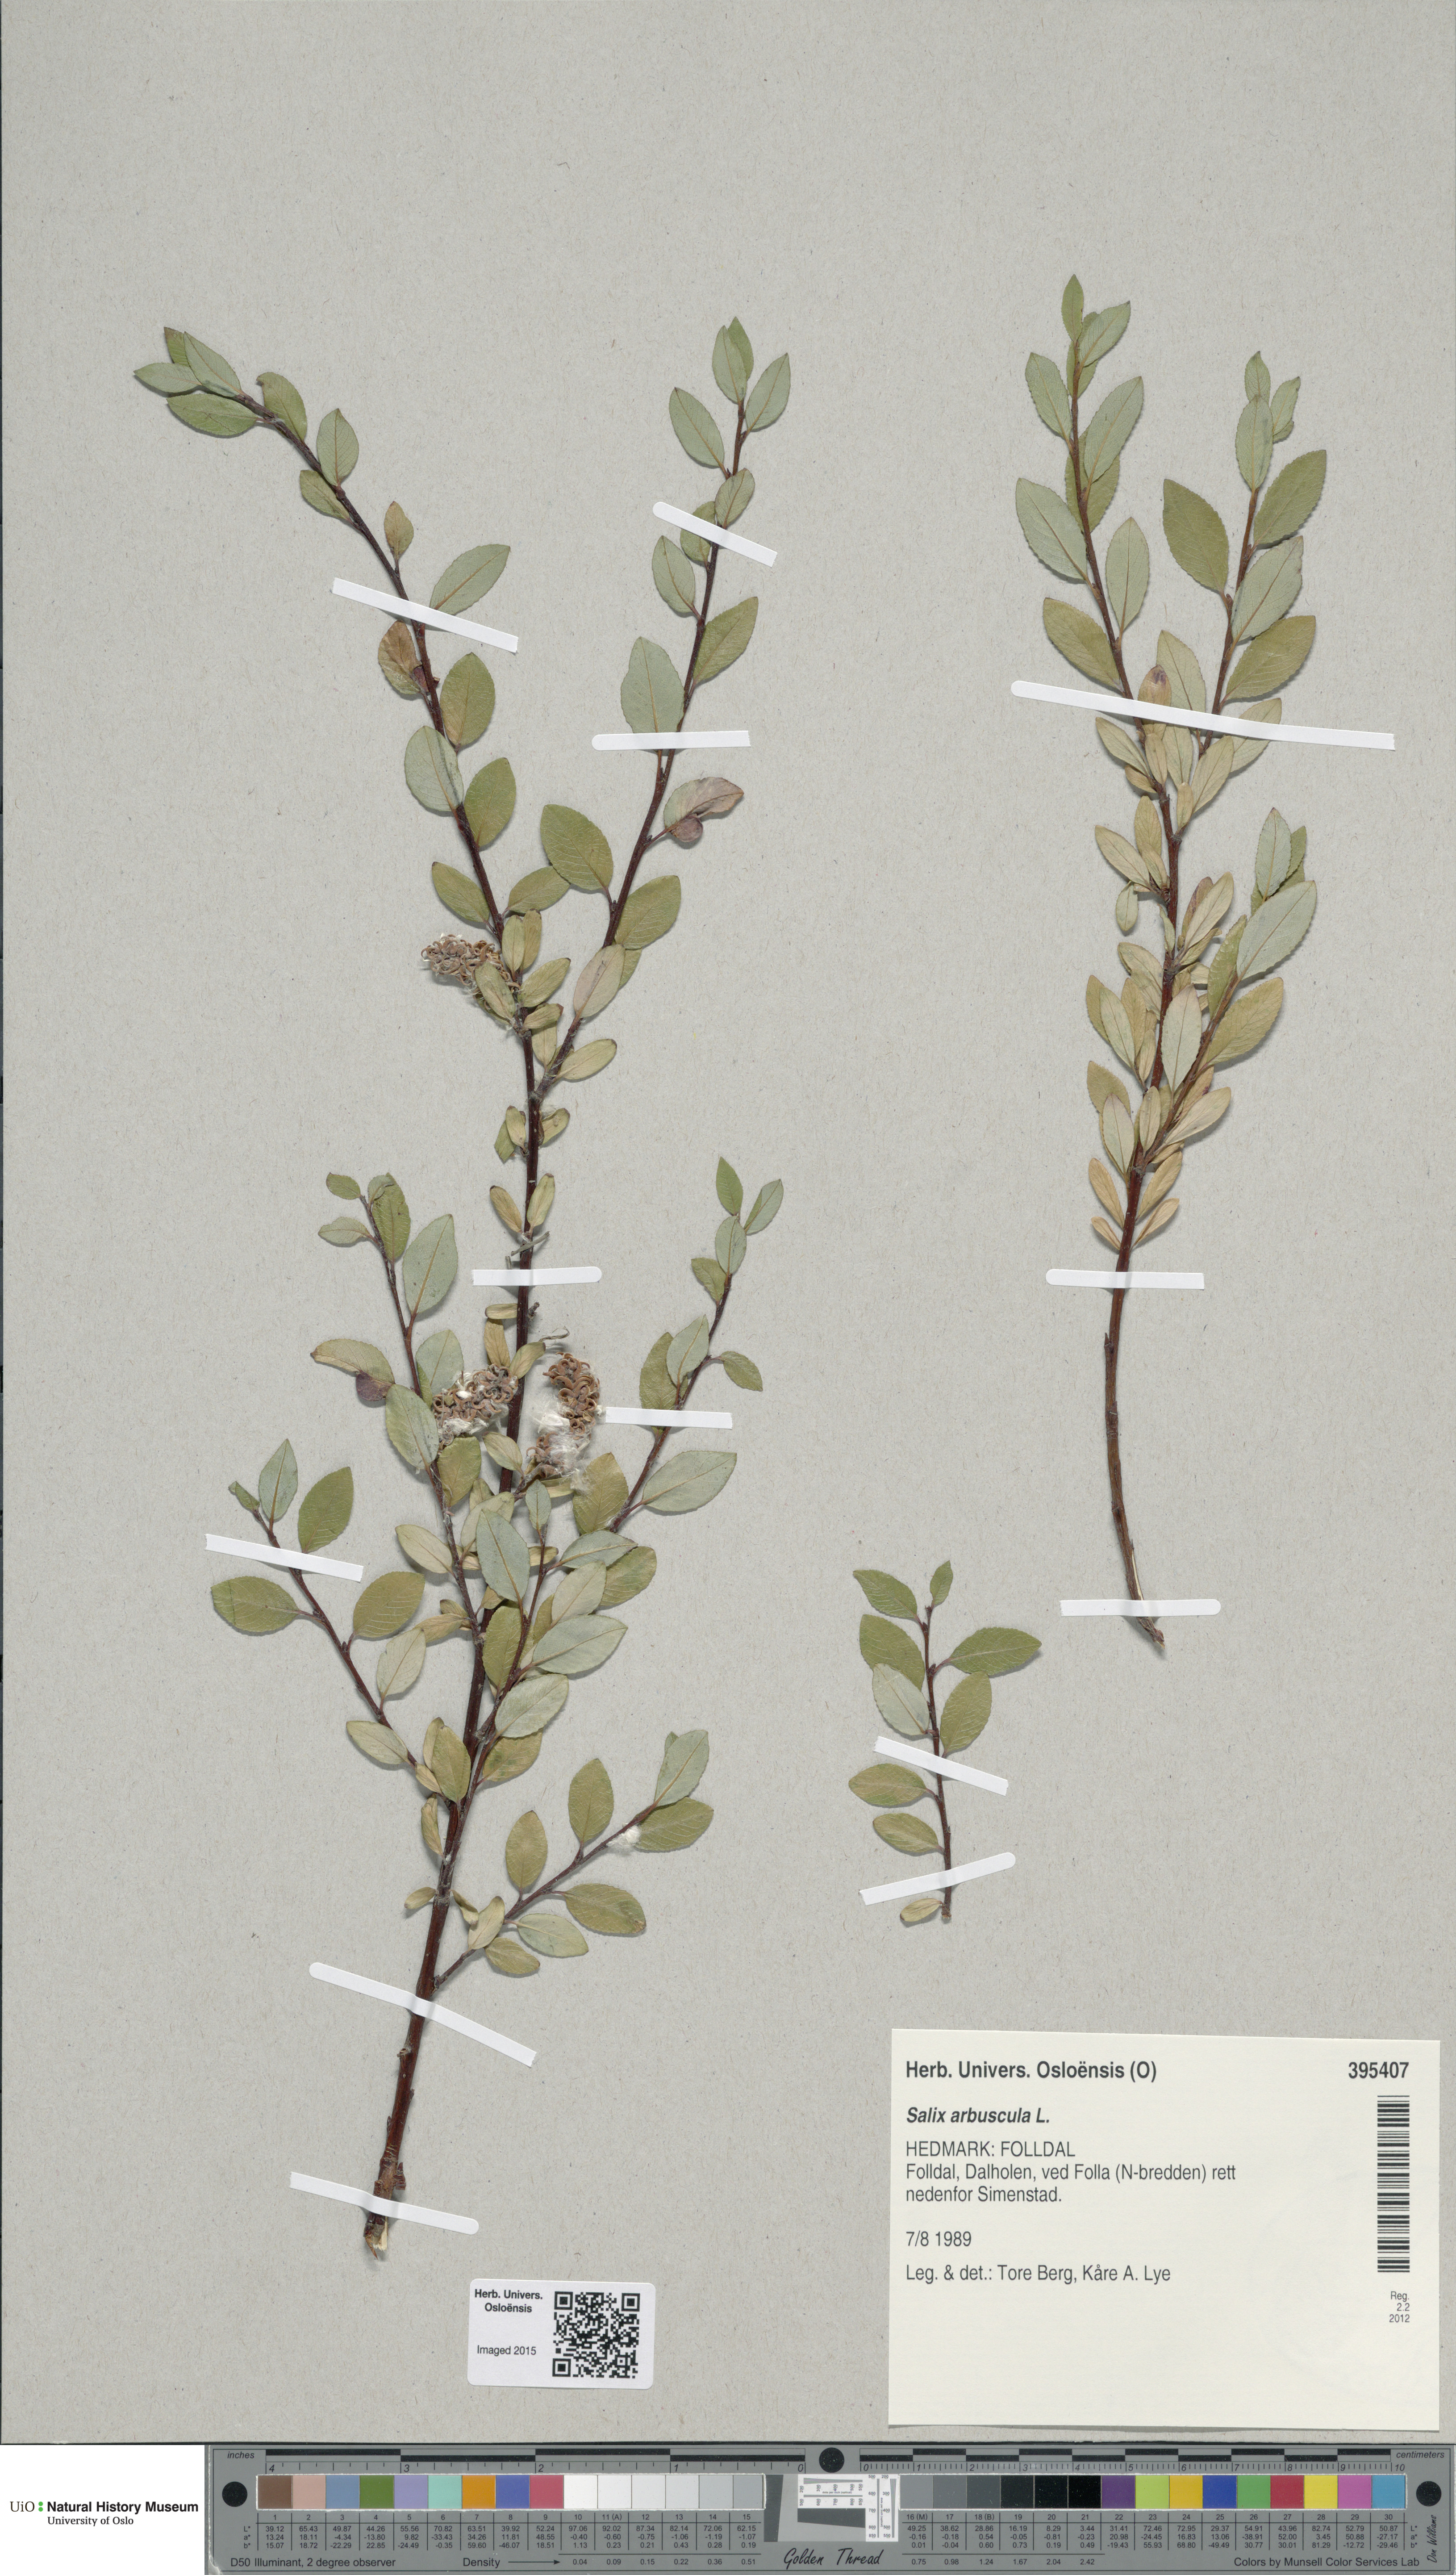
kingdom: Plantae
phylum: Tracheophyta
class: Magnoliopsida
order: Malpighiales
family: Salicaceae
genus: Salix
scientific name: Salix arbuscula
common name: Mountain willow
